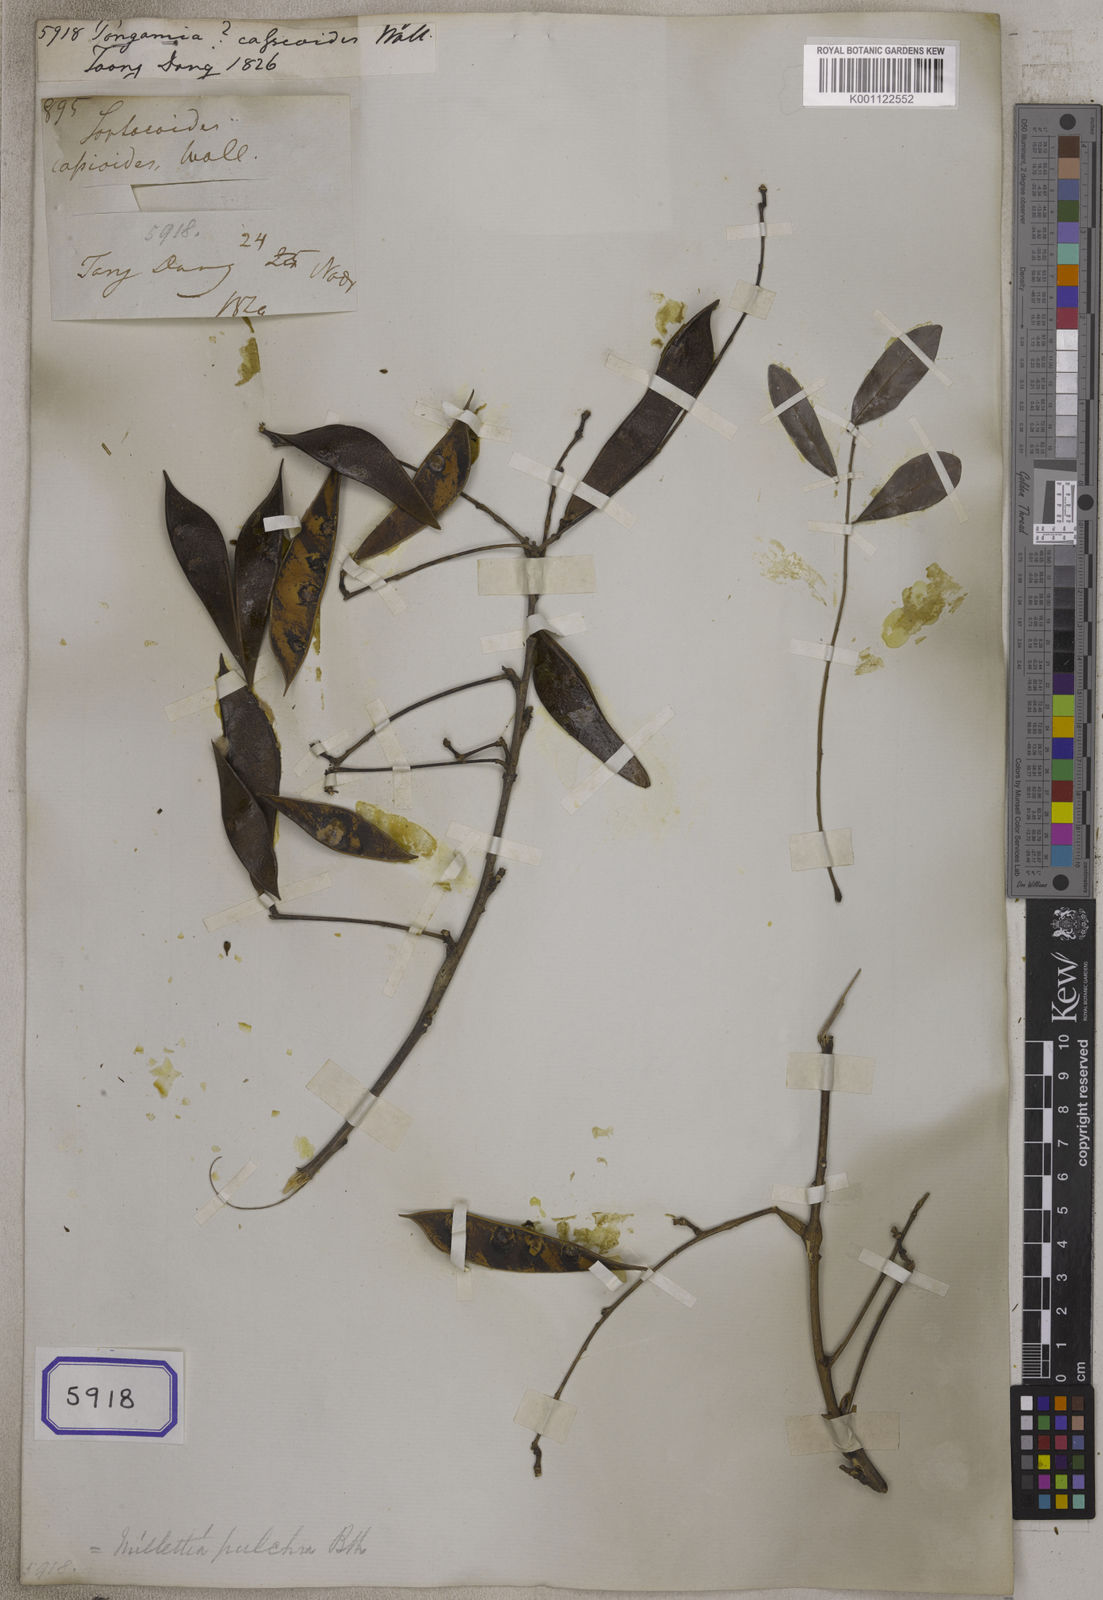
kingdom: Plantae
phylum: Tracheophyta
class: Magnoliopsida
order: Fabales
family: Fabaceae
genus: Millettia
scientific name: Millettia pulchra
